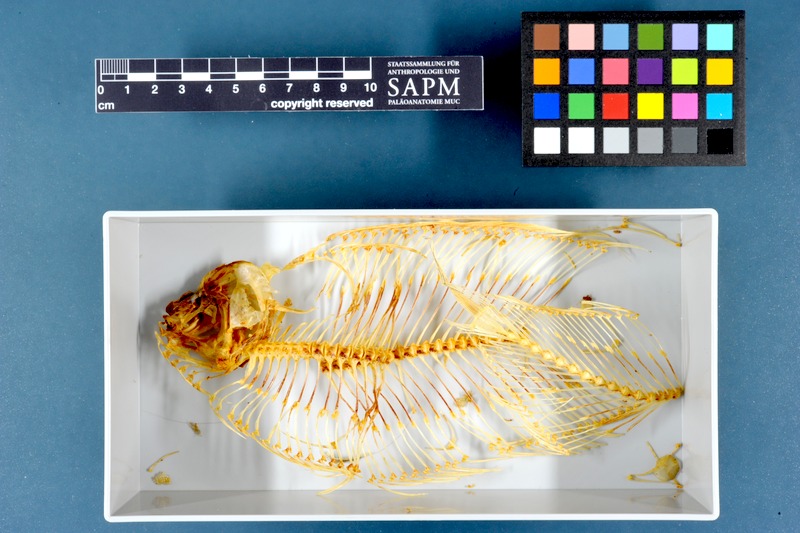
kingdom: Animalia
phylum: Chordata
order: Pleuronectiformes
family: Soleidae
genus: Solea
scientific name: Solea solea
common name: Sole
